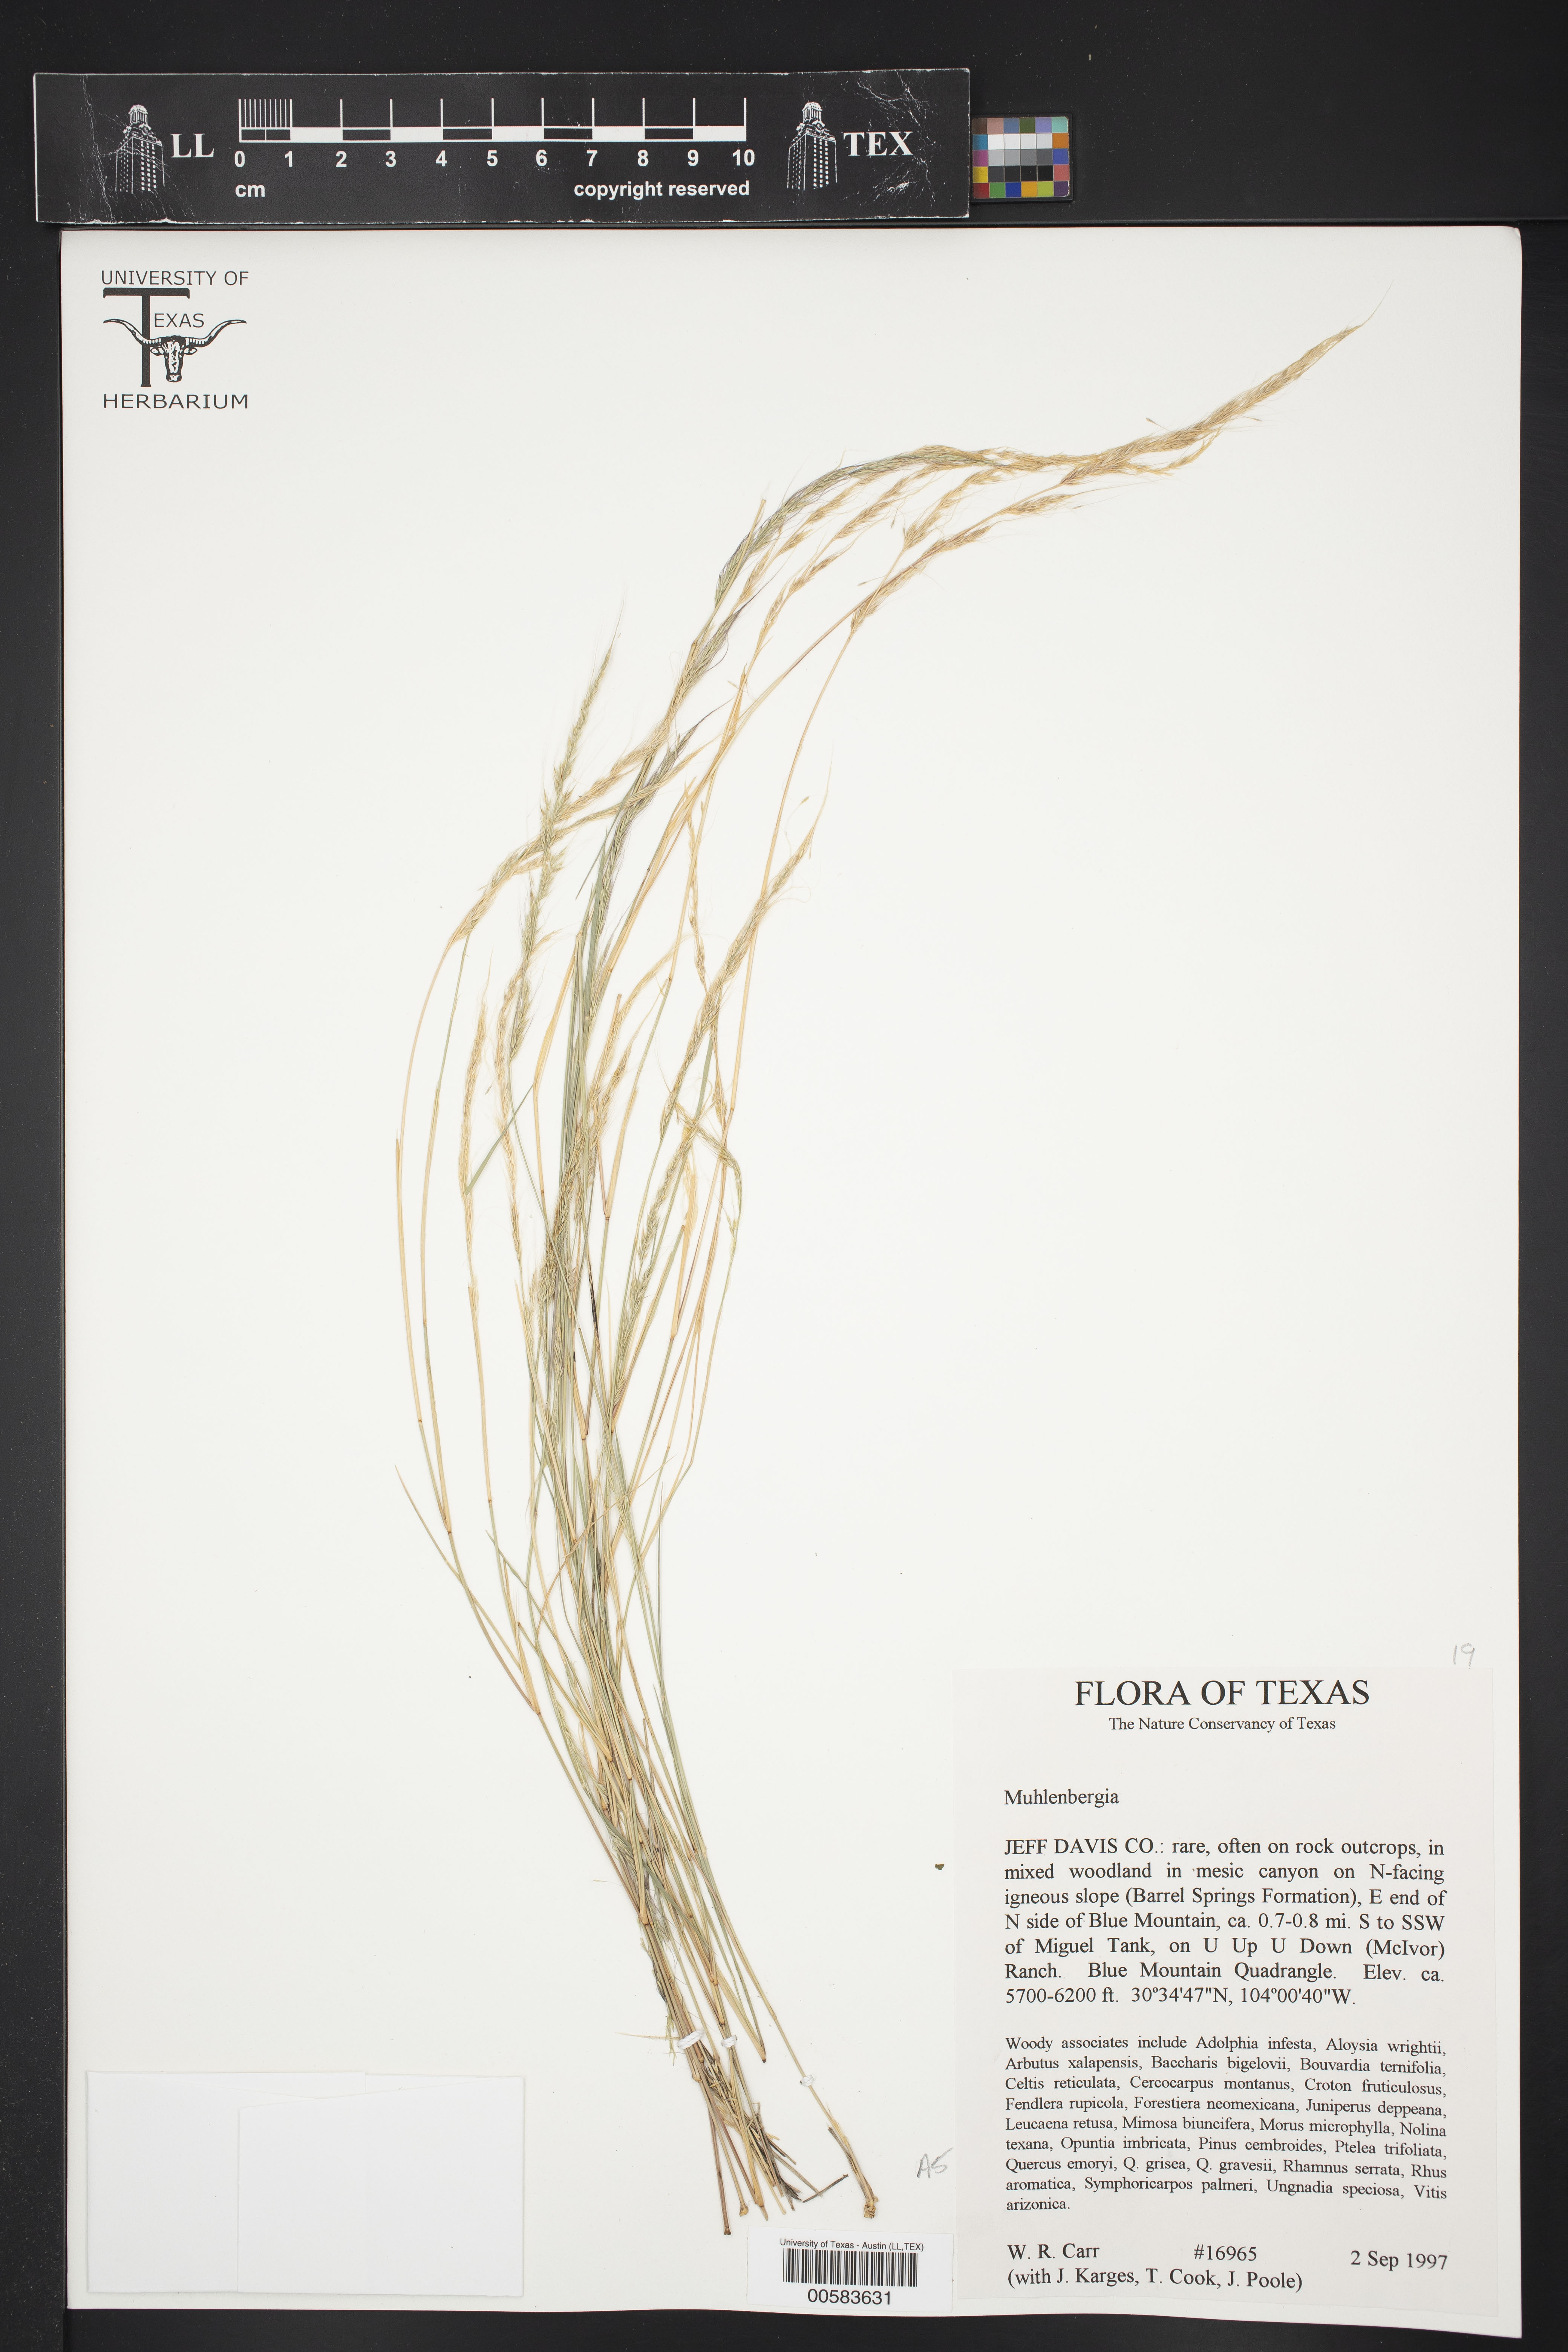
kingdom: Plantae
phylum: Tracheophyta
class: Liliopsida
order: Poales
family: Poaceae
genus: Muhlenbergia
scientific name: Muhlenbergia
